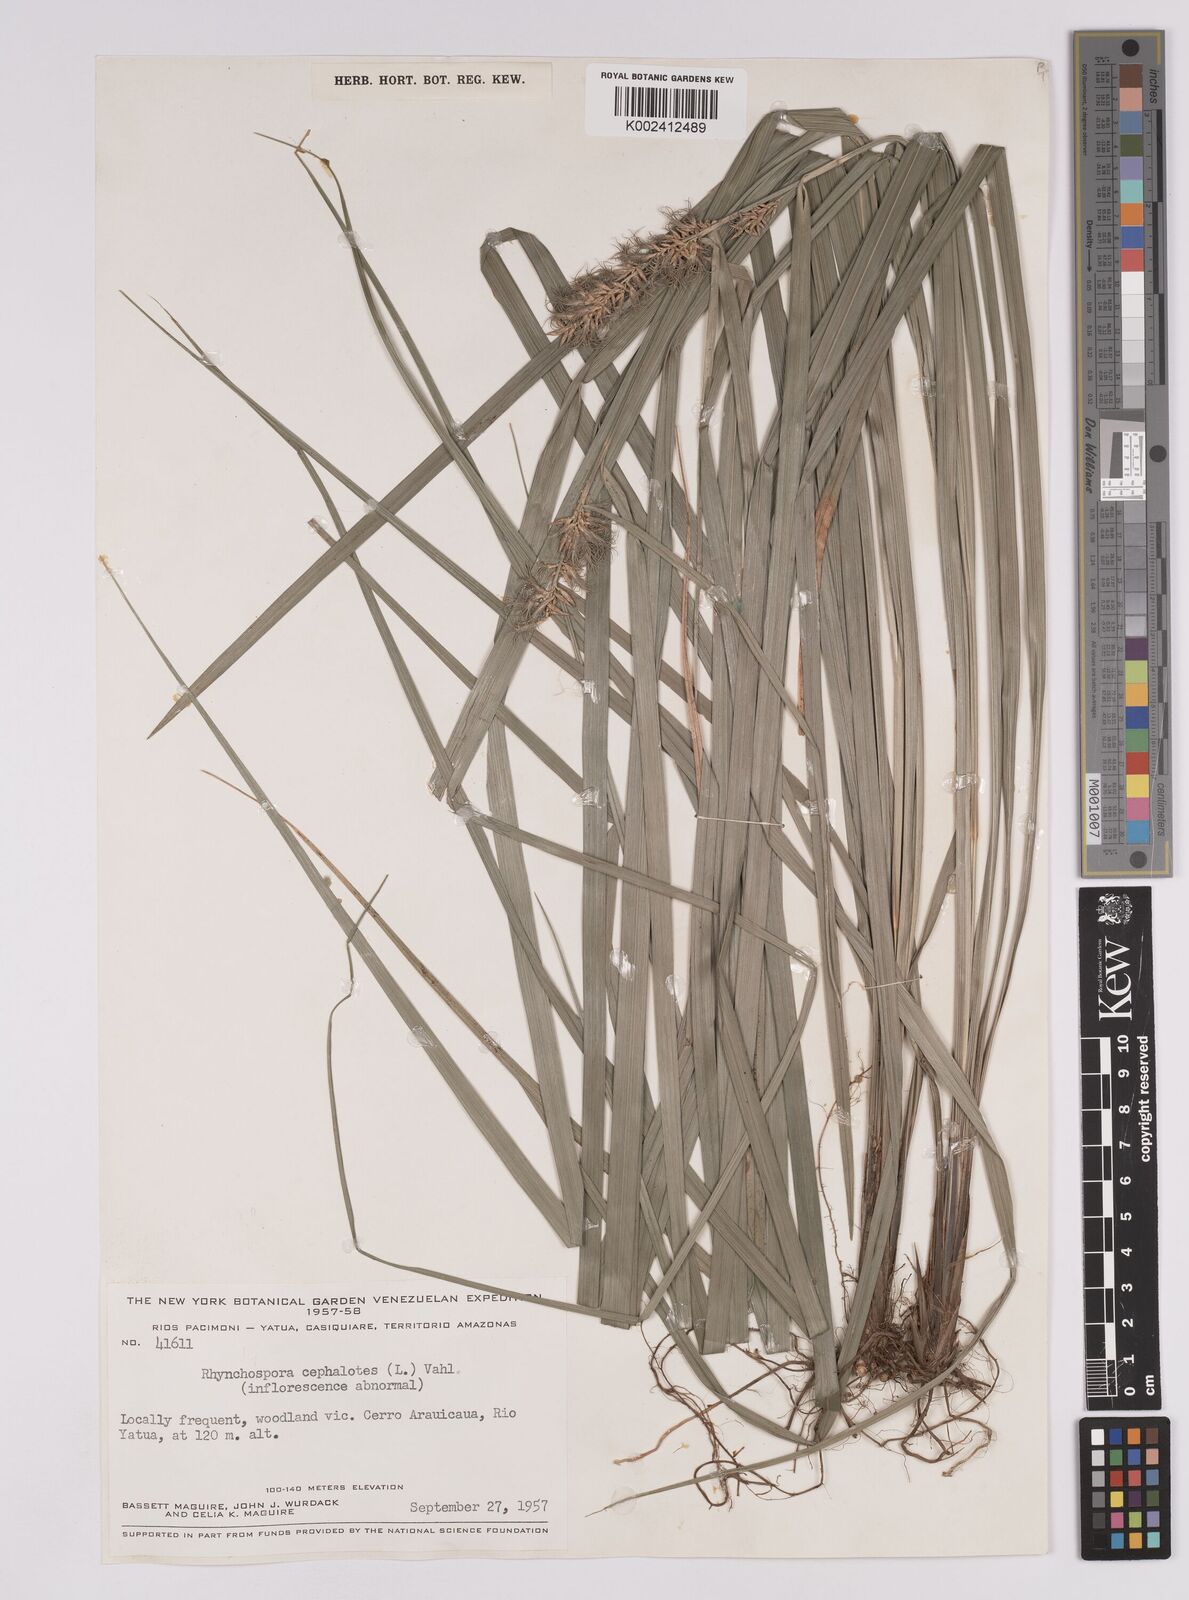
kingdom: Plantae
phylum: Tracheophyta
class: Liliopsida
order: Poales
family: Cyperaceae
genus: Rhynchospora
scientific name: Rhynchospora cephalotes
